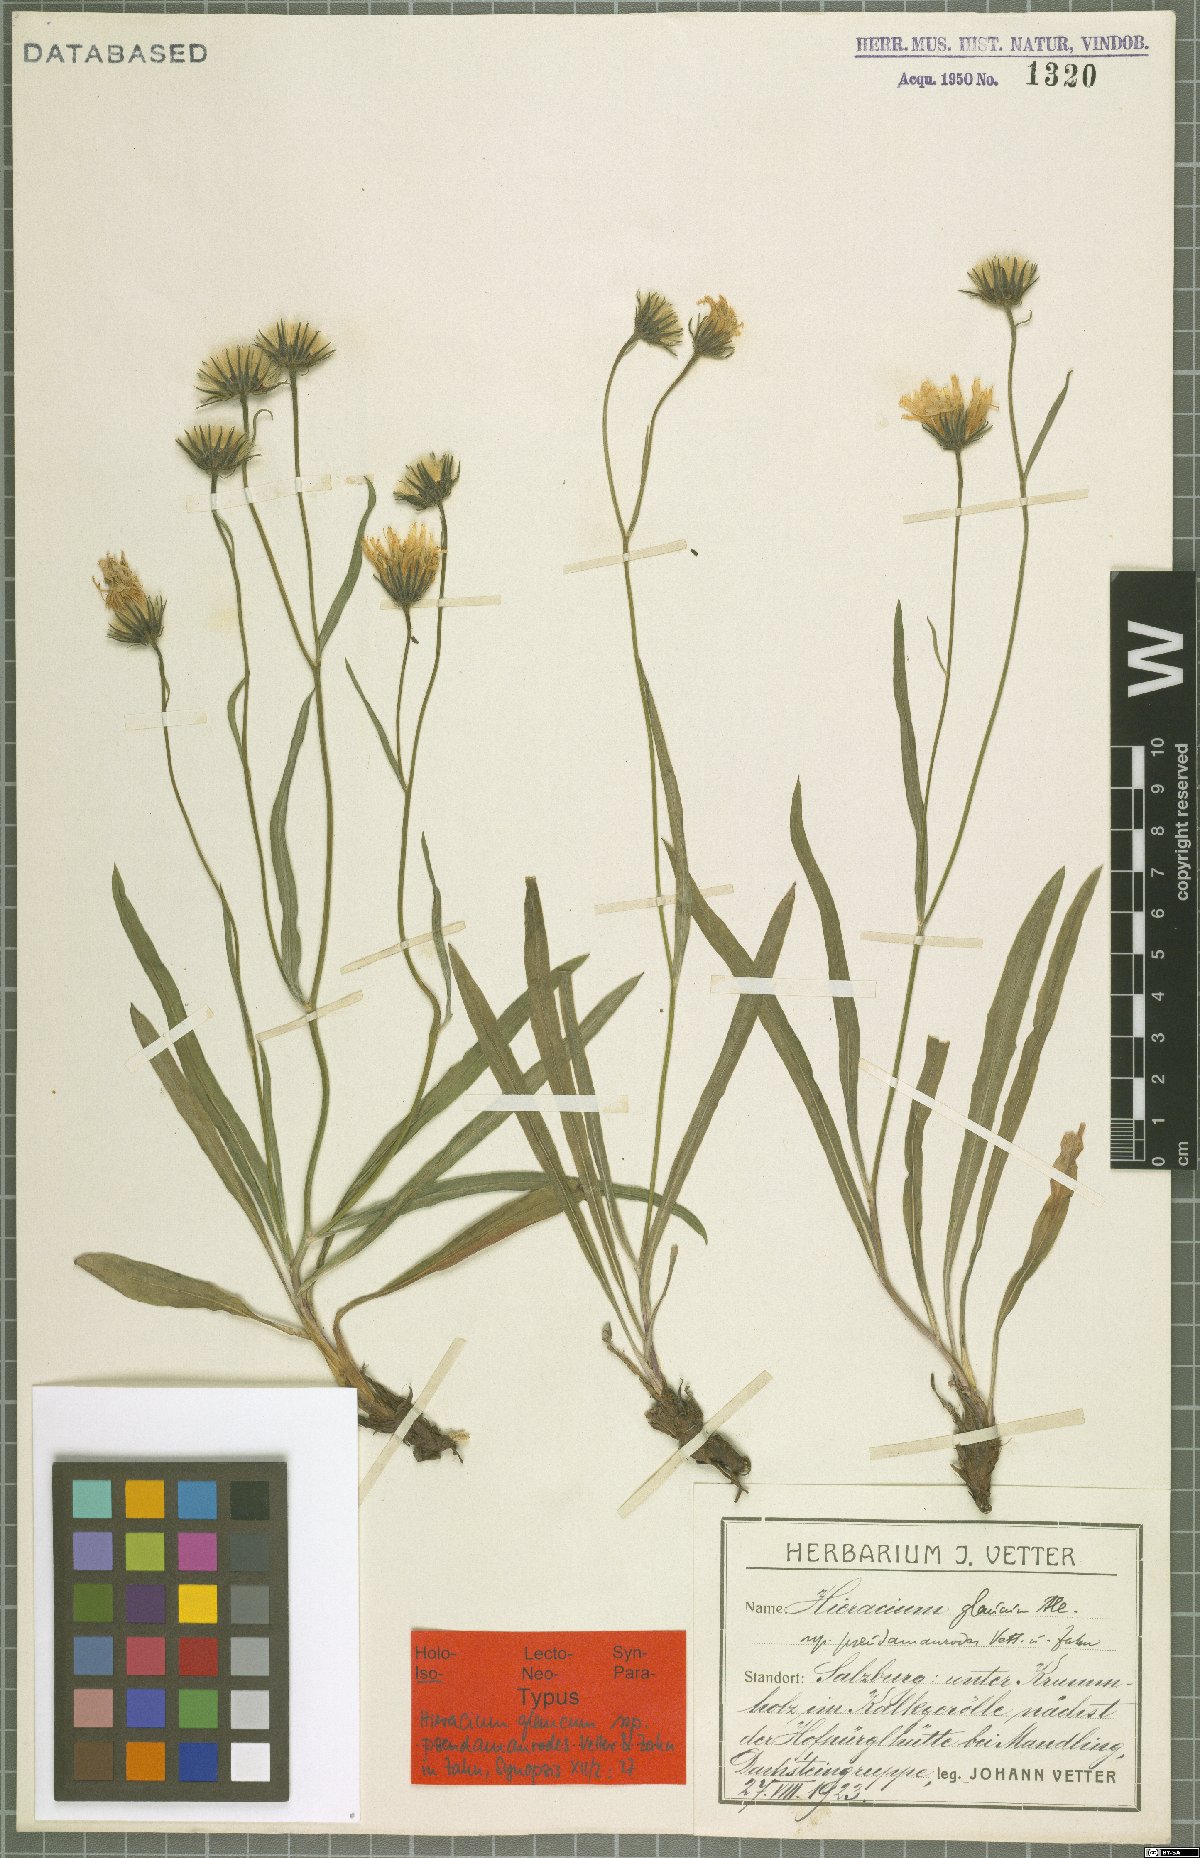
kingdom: Plantae
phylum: Tracheophyta
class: Magnoliopsida
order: Asterales
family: Asteraceae
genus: Hieracium
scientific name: Hieracium glaucum
